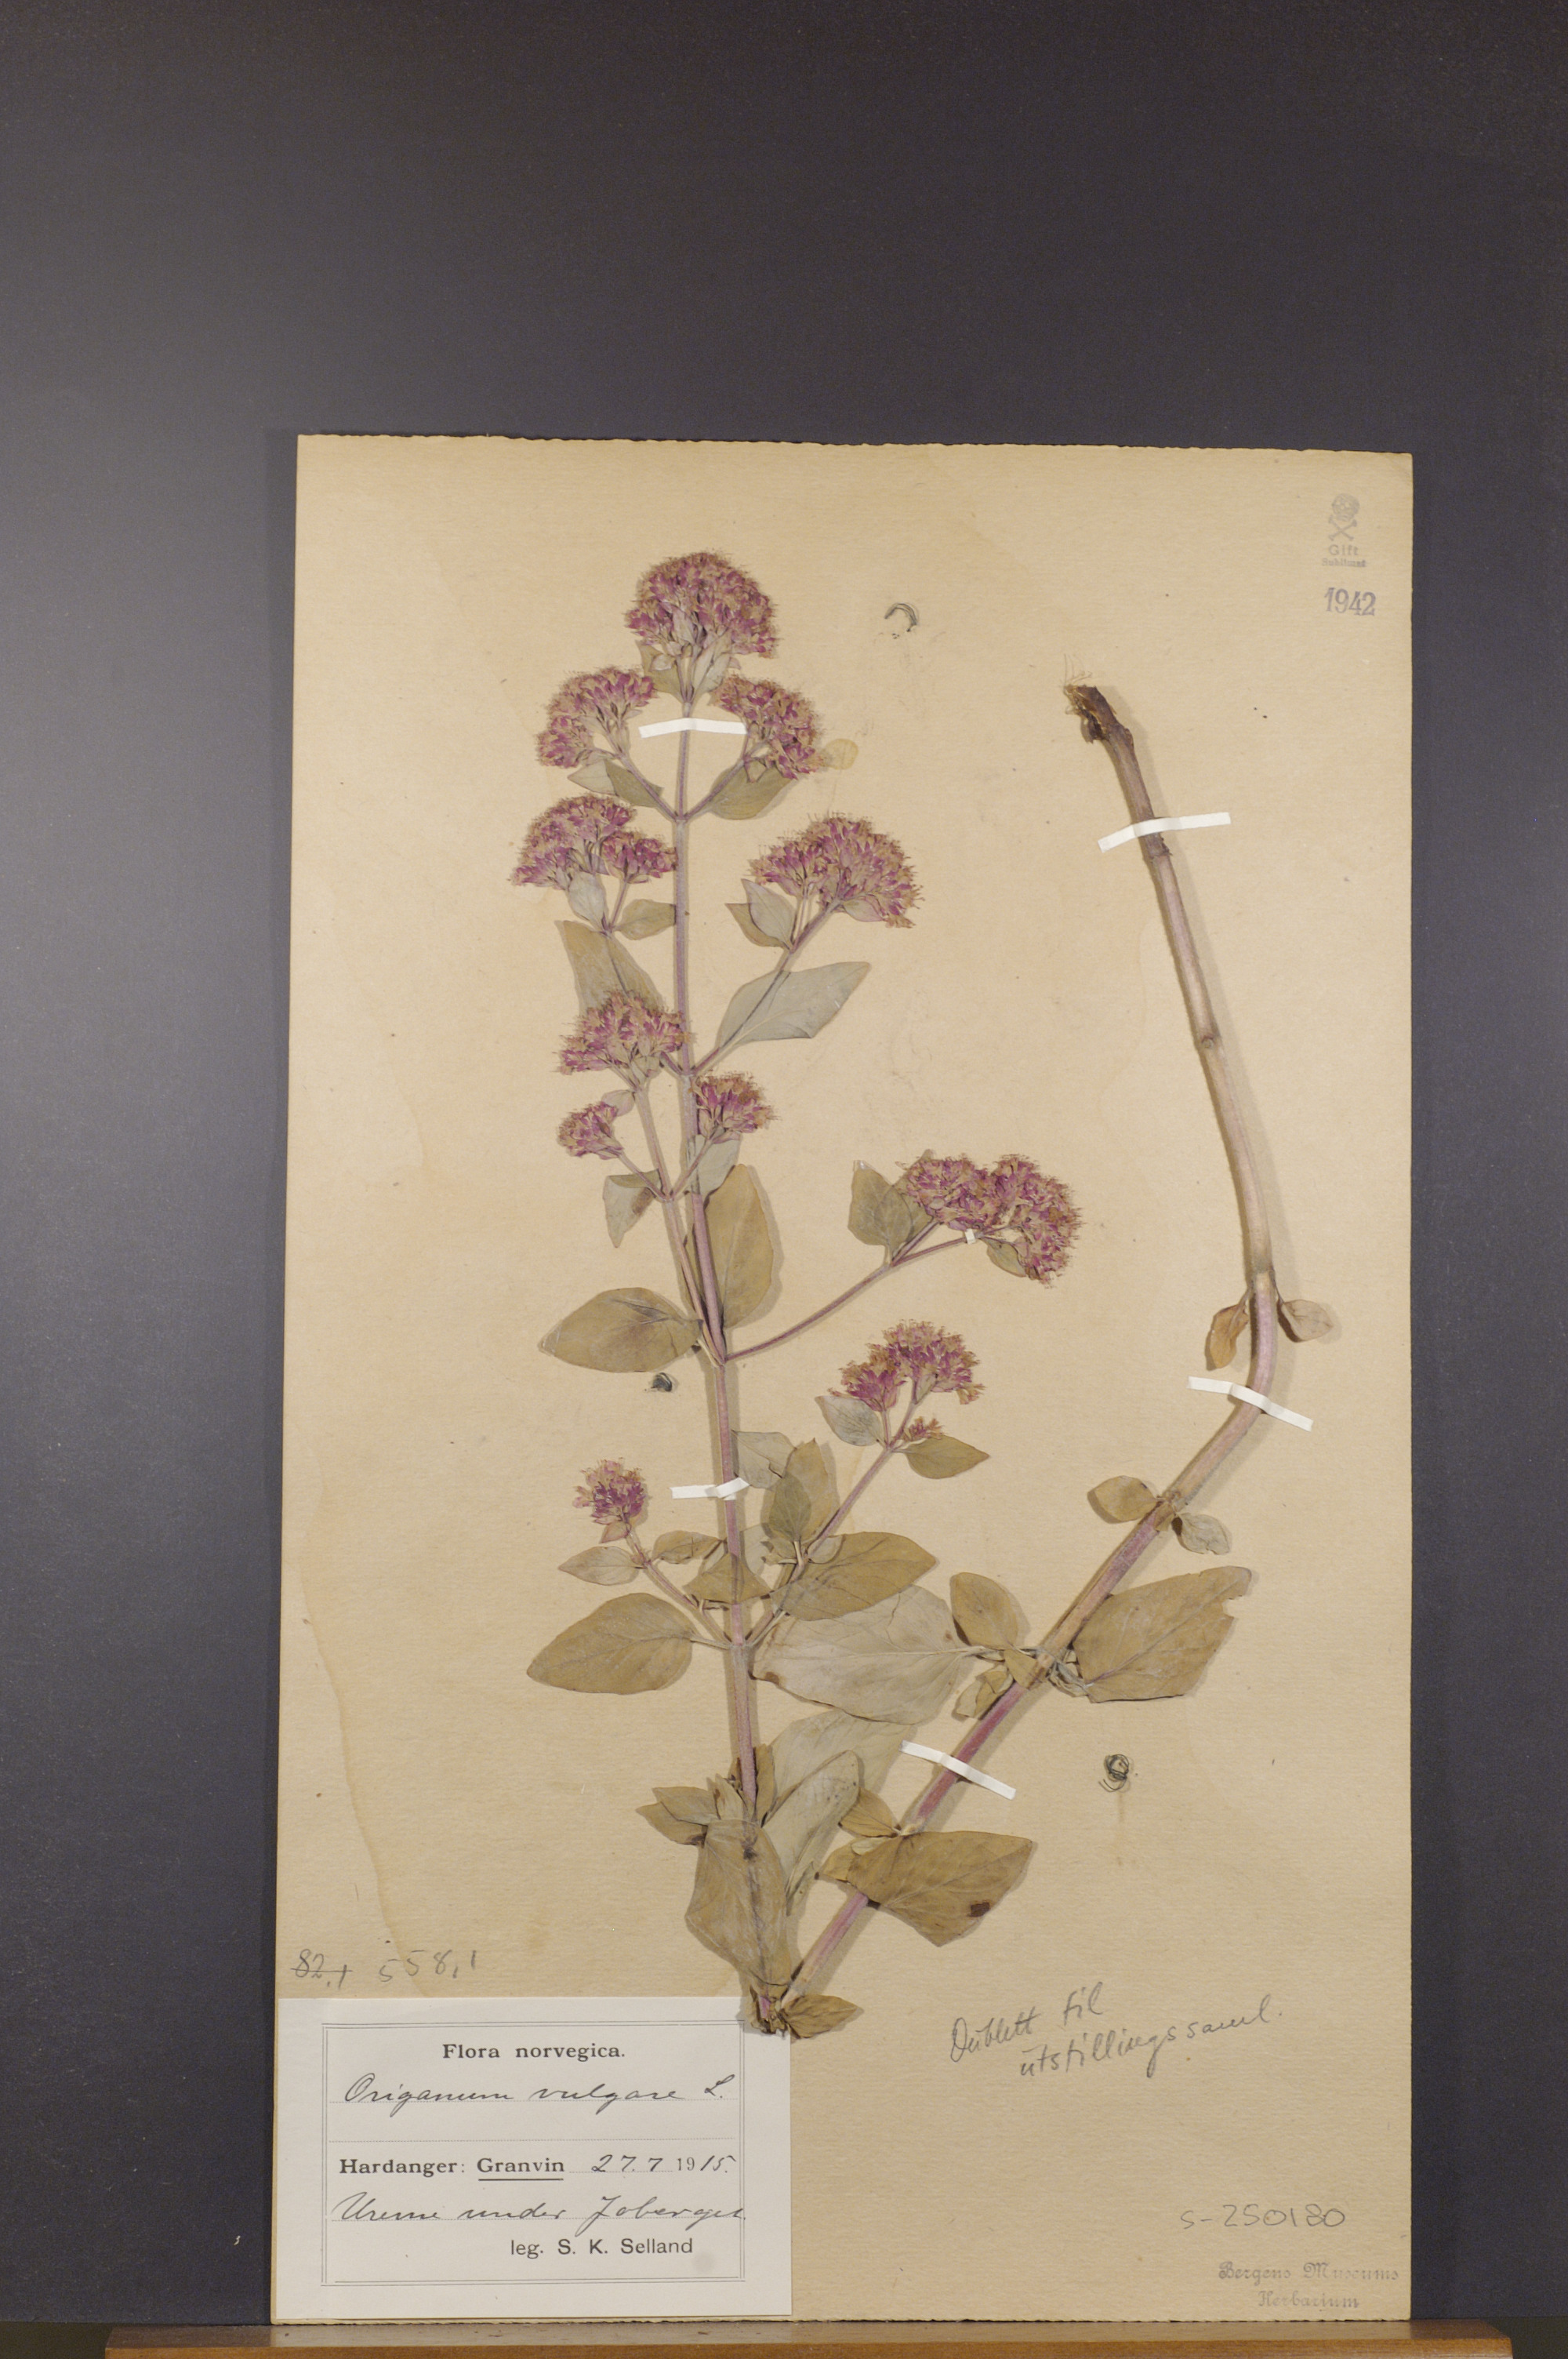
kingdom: Plantae
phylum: Tracheophyta
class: Magnoliopsida
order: Lamiales
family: Lamiaceae
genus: Origanum
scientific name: Origanum vulgare
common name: Wild marjoram
